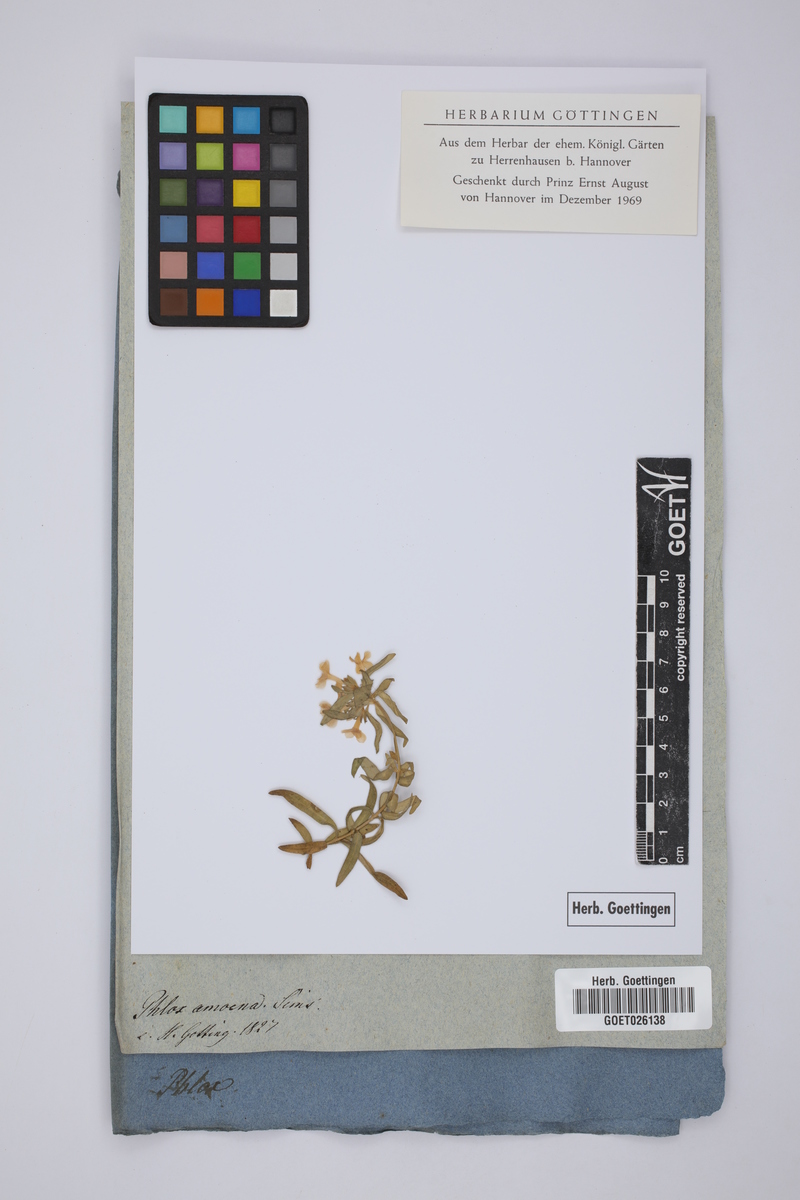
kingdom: Plantae
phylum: Tracheophyta
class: Magnoliopsida
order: Ericales
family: Polemoniaceae
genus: Phlox
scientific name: Phlox amoena
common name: Hairy phlox
